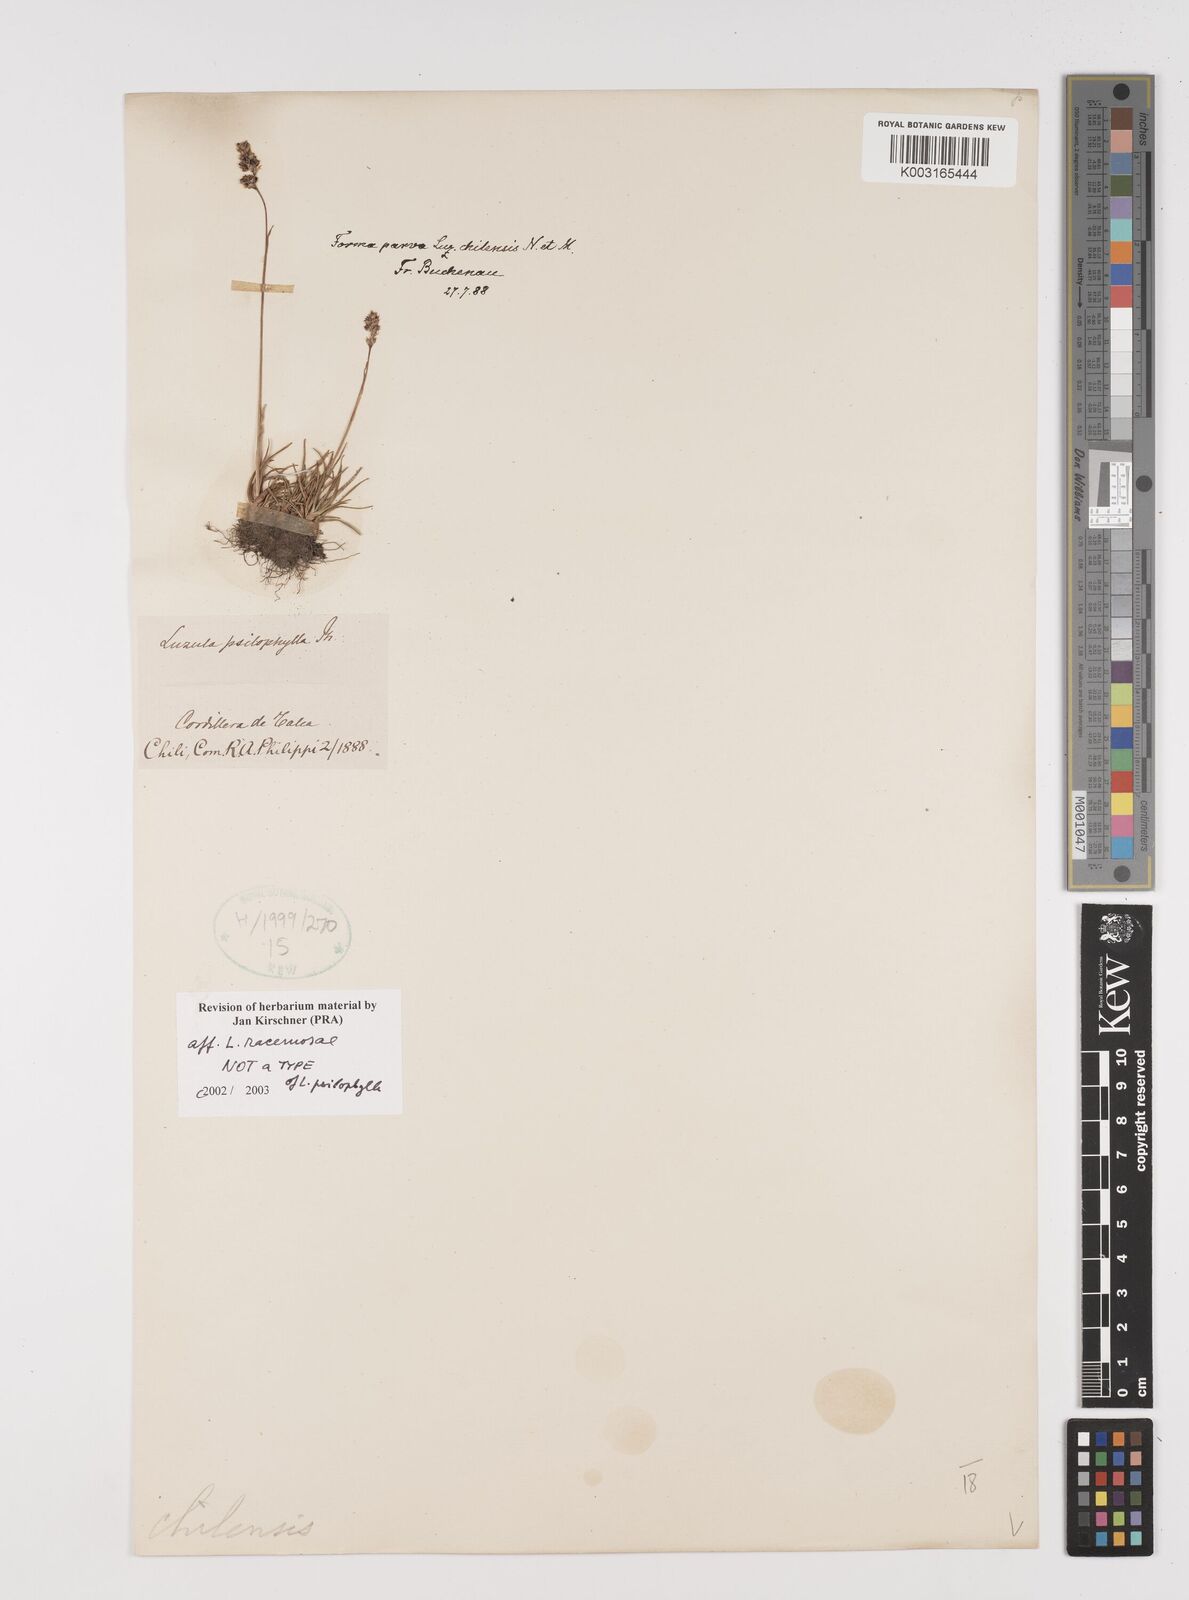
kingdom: Plantae
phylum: Tracheophyta
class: Liliopsida
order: Poales
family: Juncaceae
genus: Luzula
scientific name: Luzula racemosa
